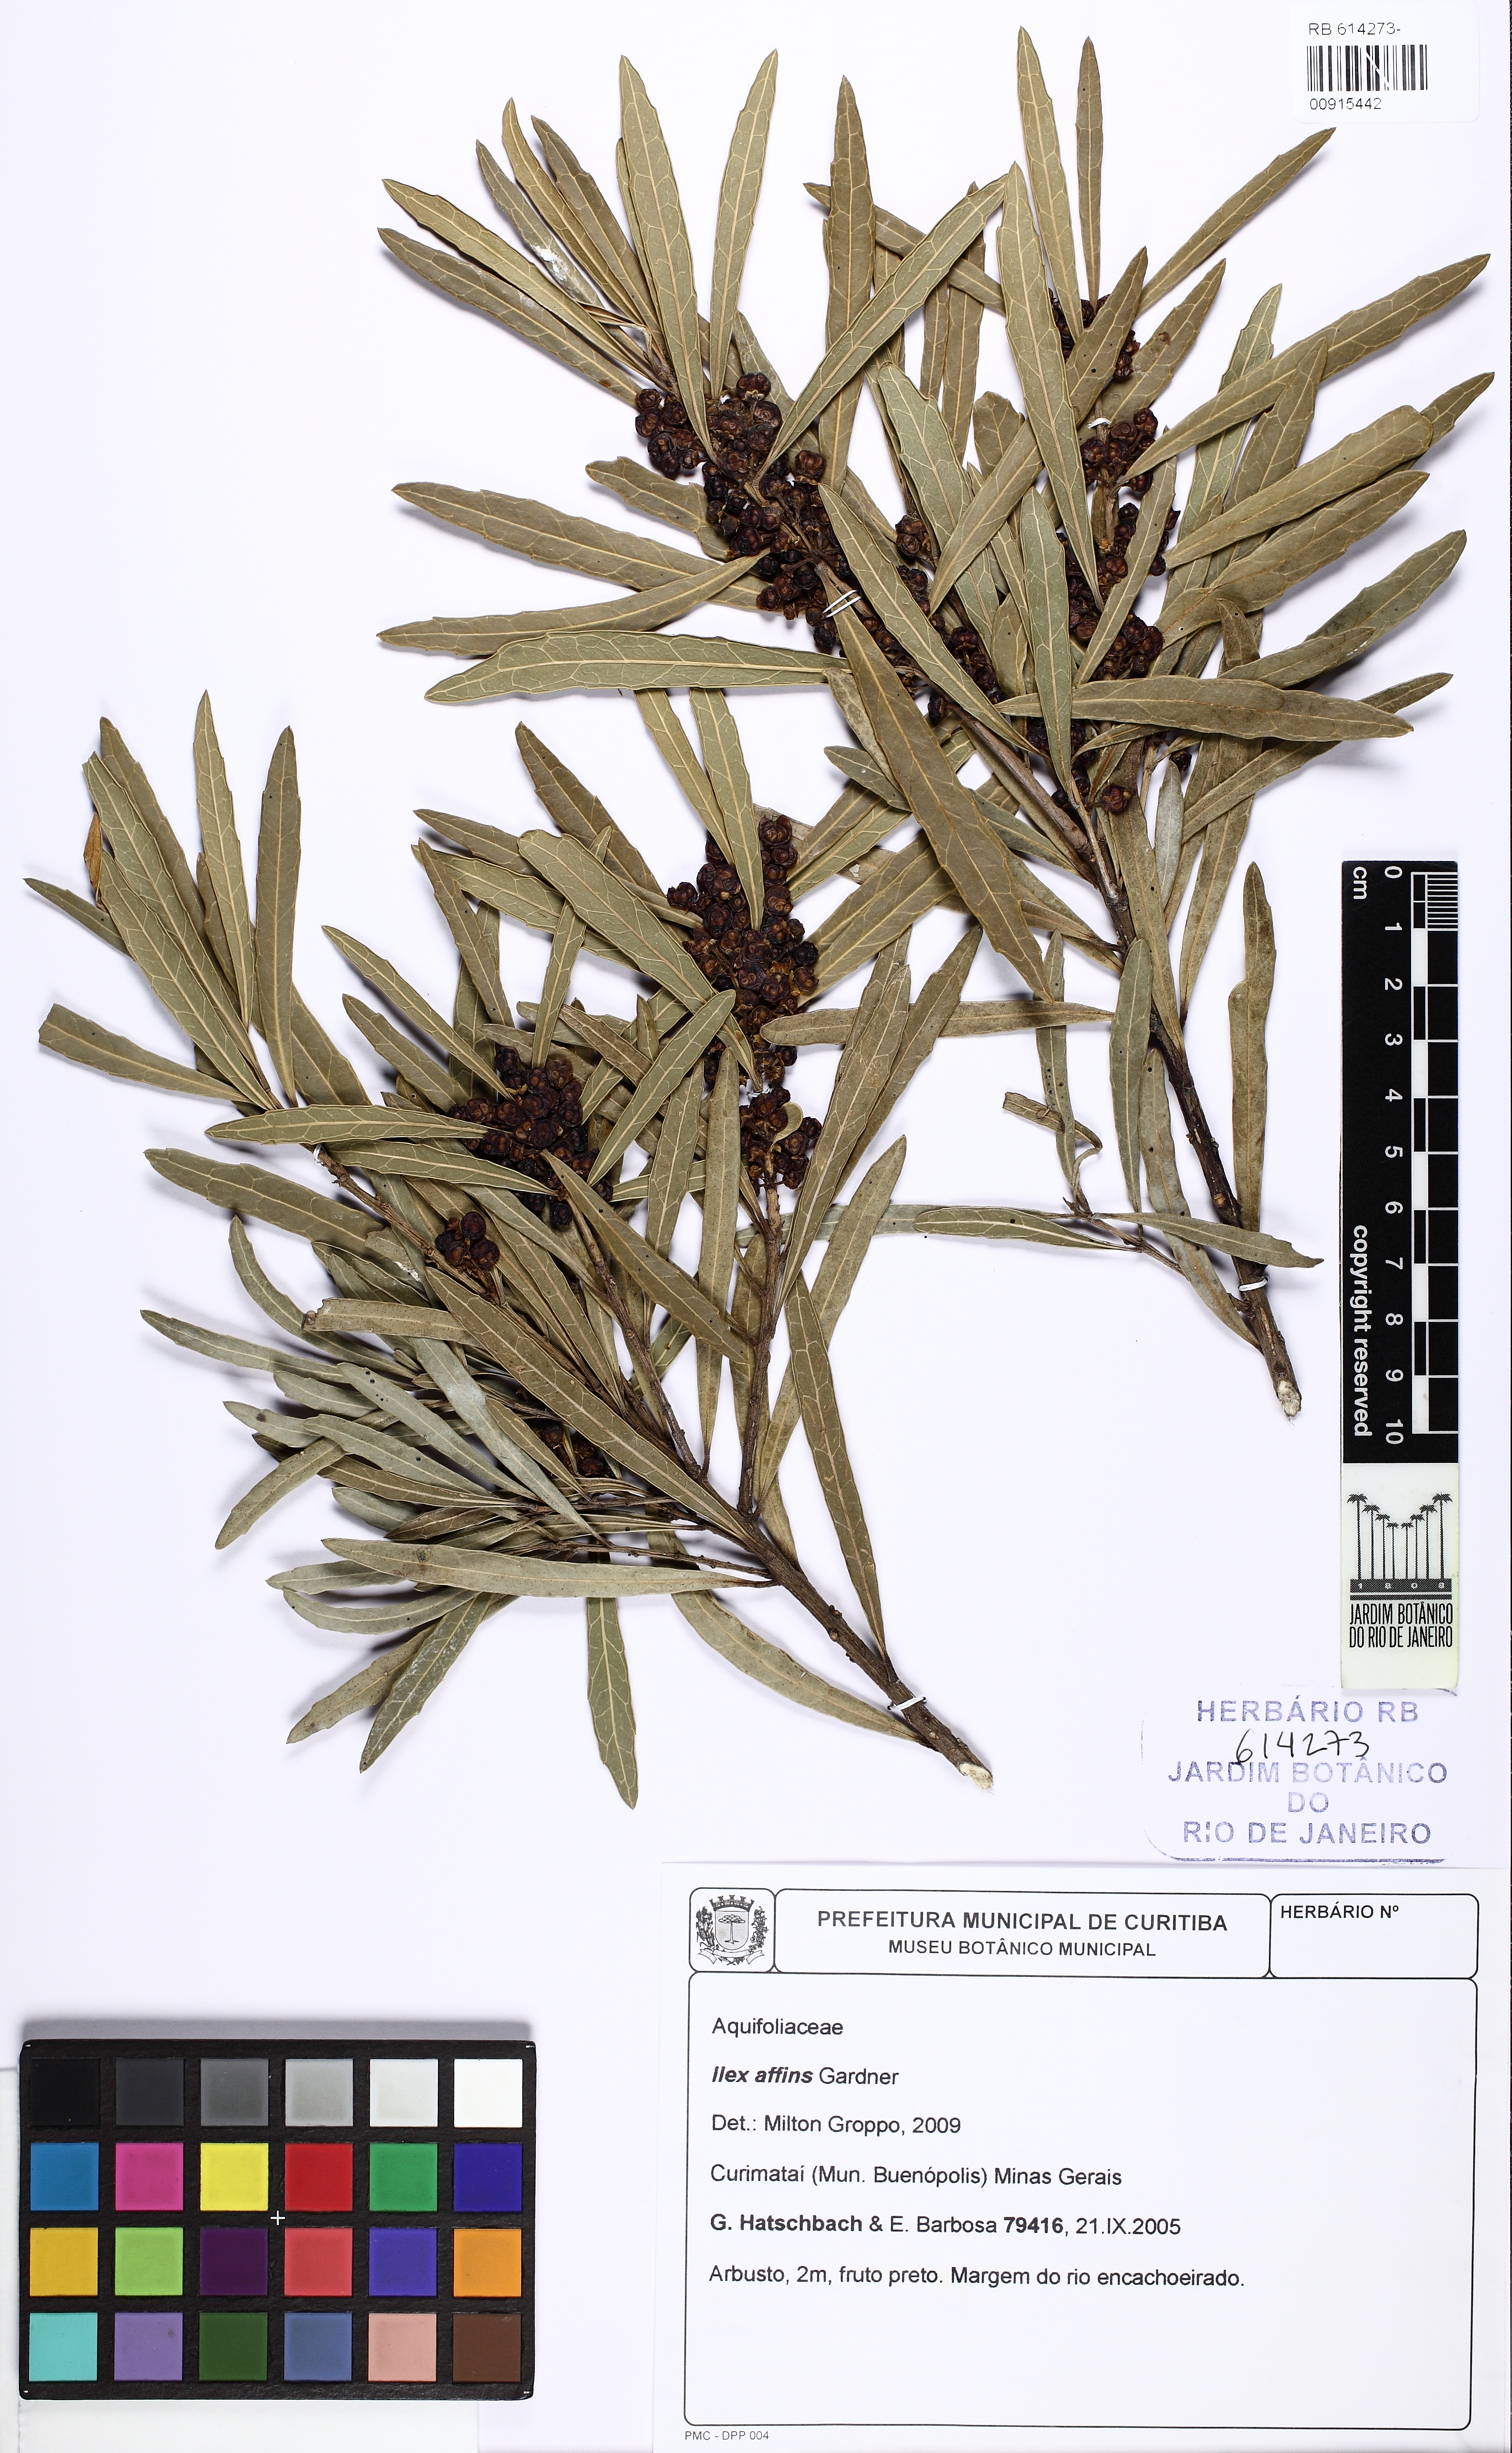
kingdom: Plantae
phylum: Tracheophyta
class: Magnoliopsida
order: Aquifoliales
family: Aquifoliaceae
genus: Ilex
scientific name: Ilex affinis
